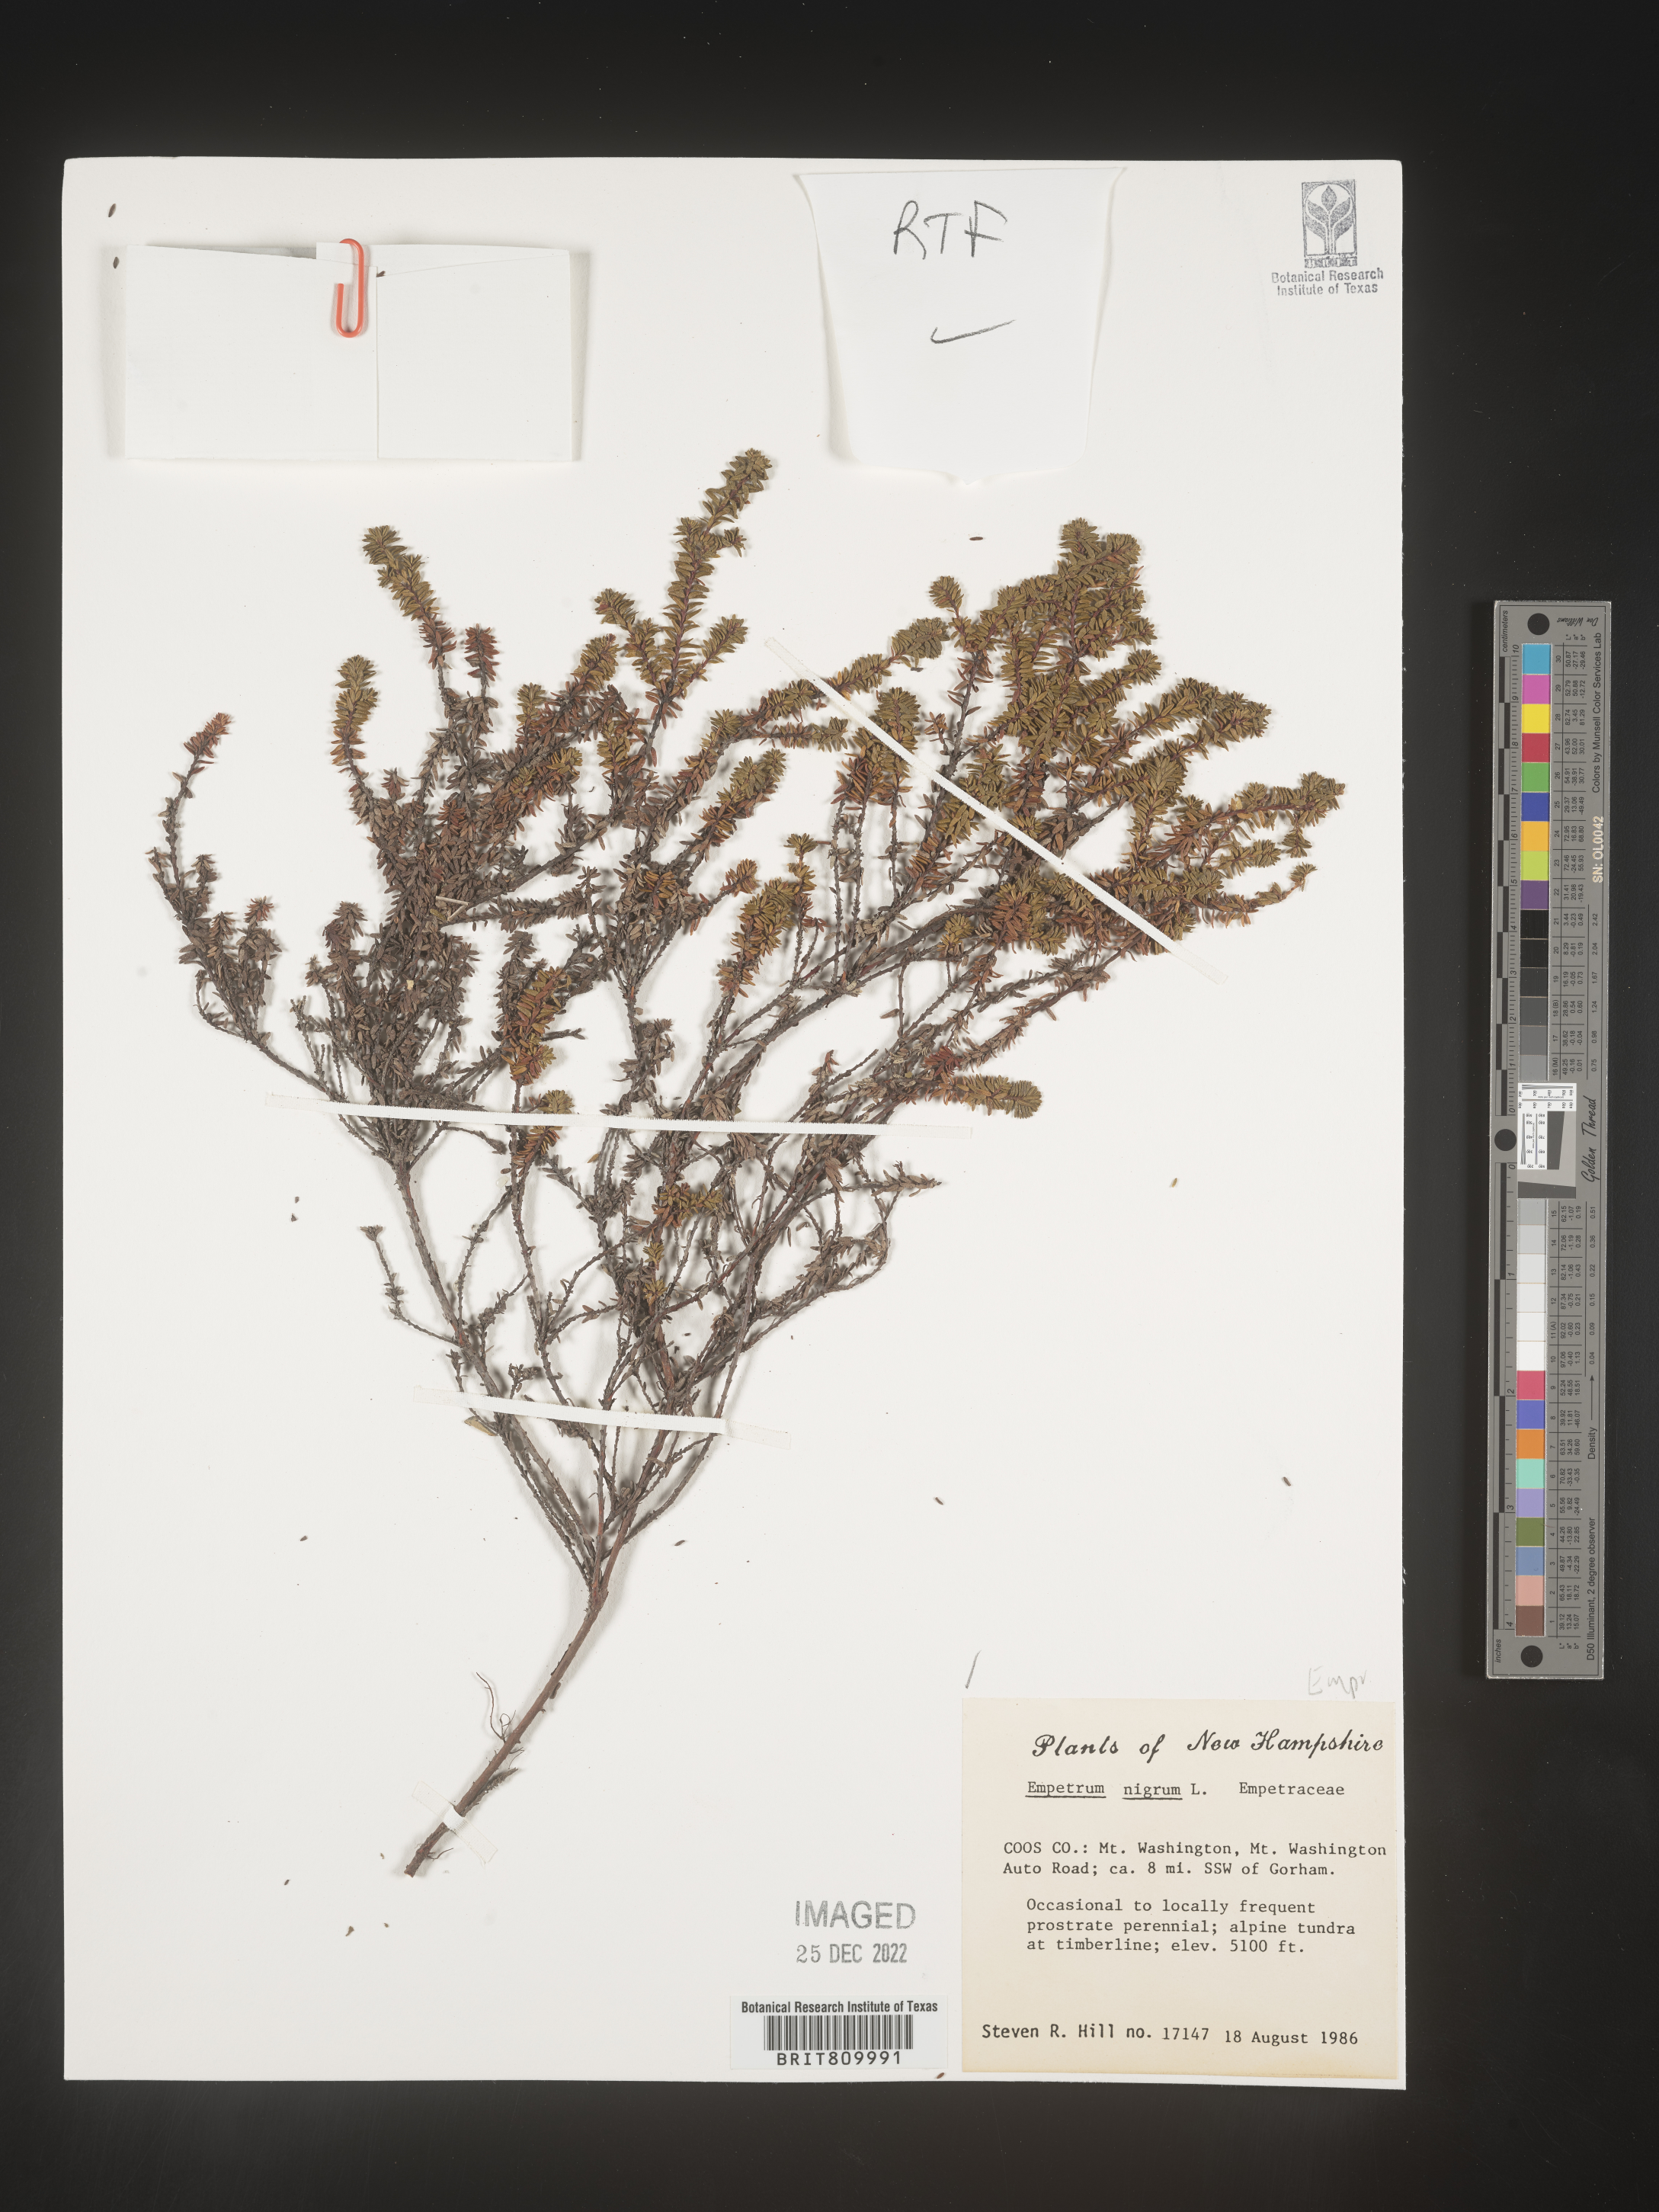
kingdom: Plantae
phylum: Tracheophyta
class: Magnoliopsida
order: Ericales
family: Ericaceae
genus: Empetrum
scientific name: Empetrum
